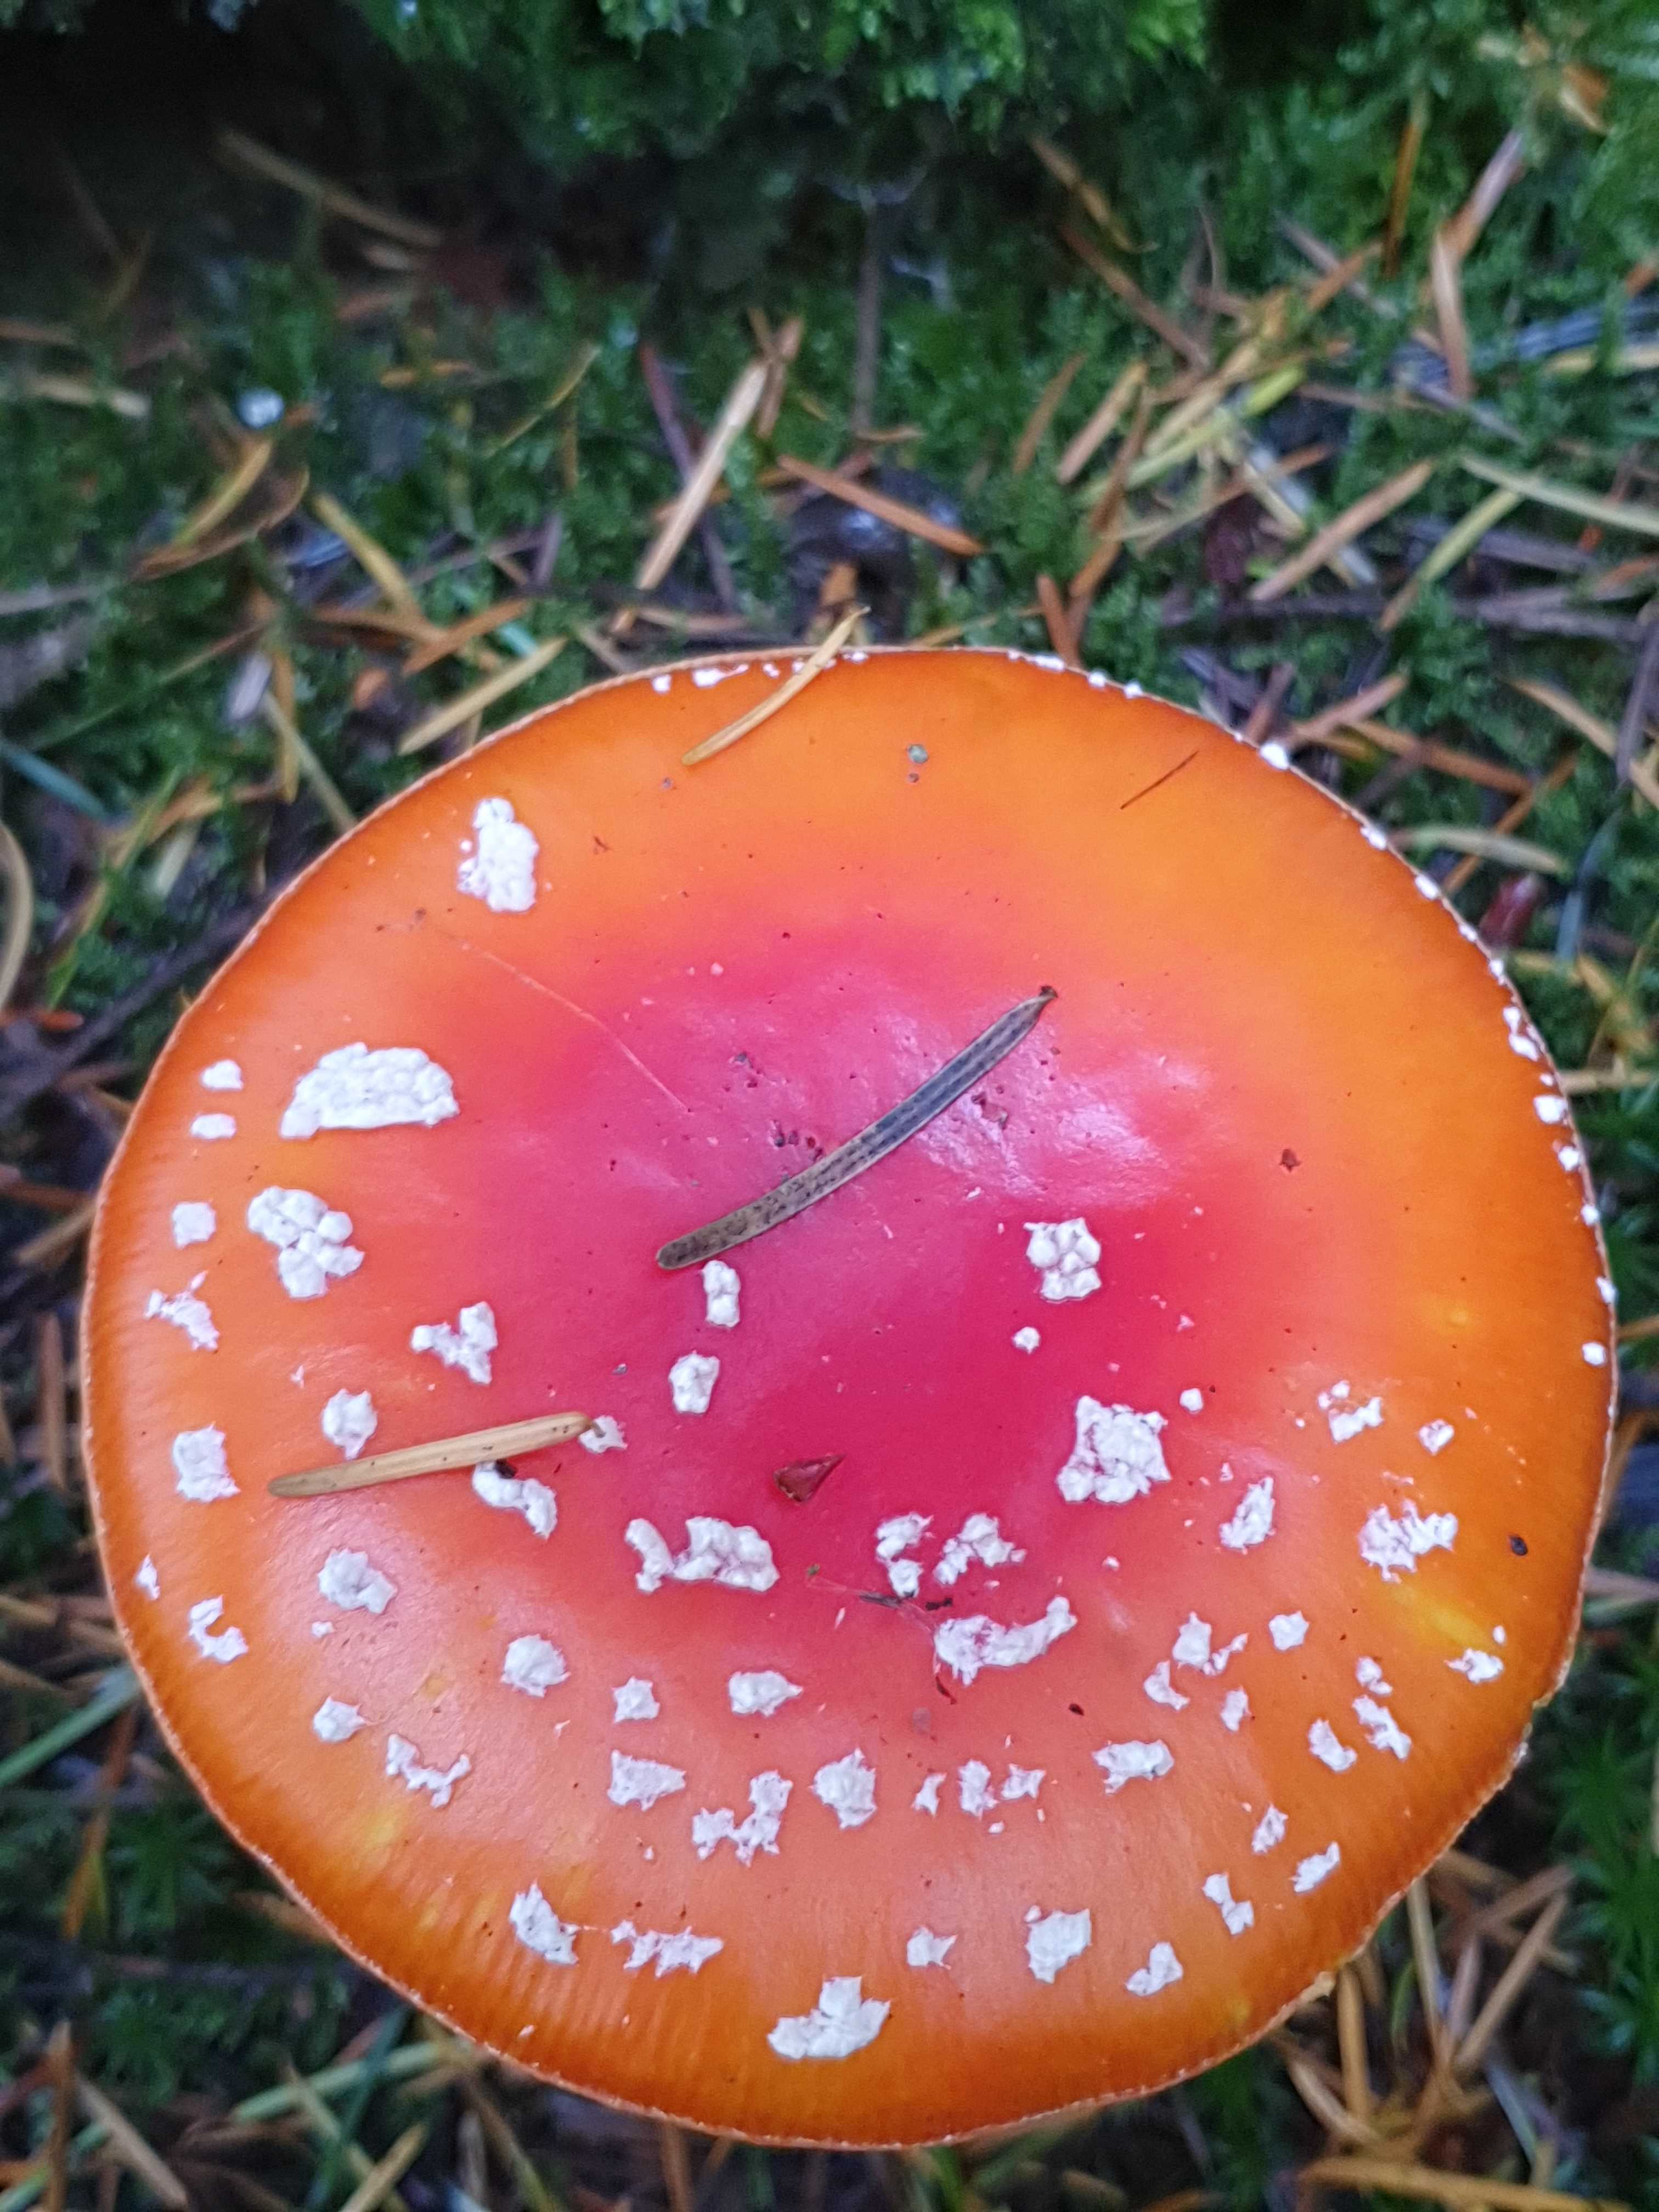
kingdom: Fungi
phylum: Basidiomycota
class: Agaricomycetes
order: Agaricales
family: Amanitaceae
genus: Amanita
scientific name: Amanita muscaria
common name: rød fluesvamp
